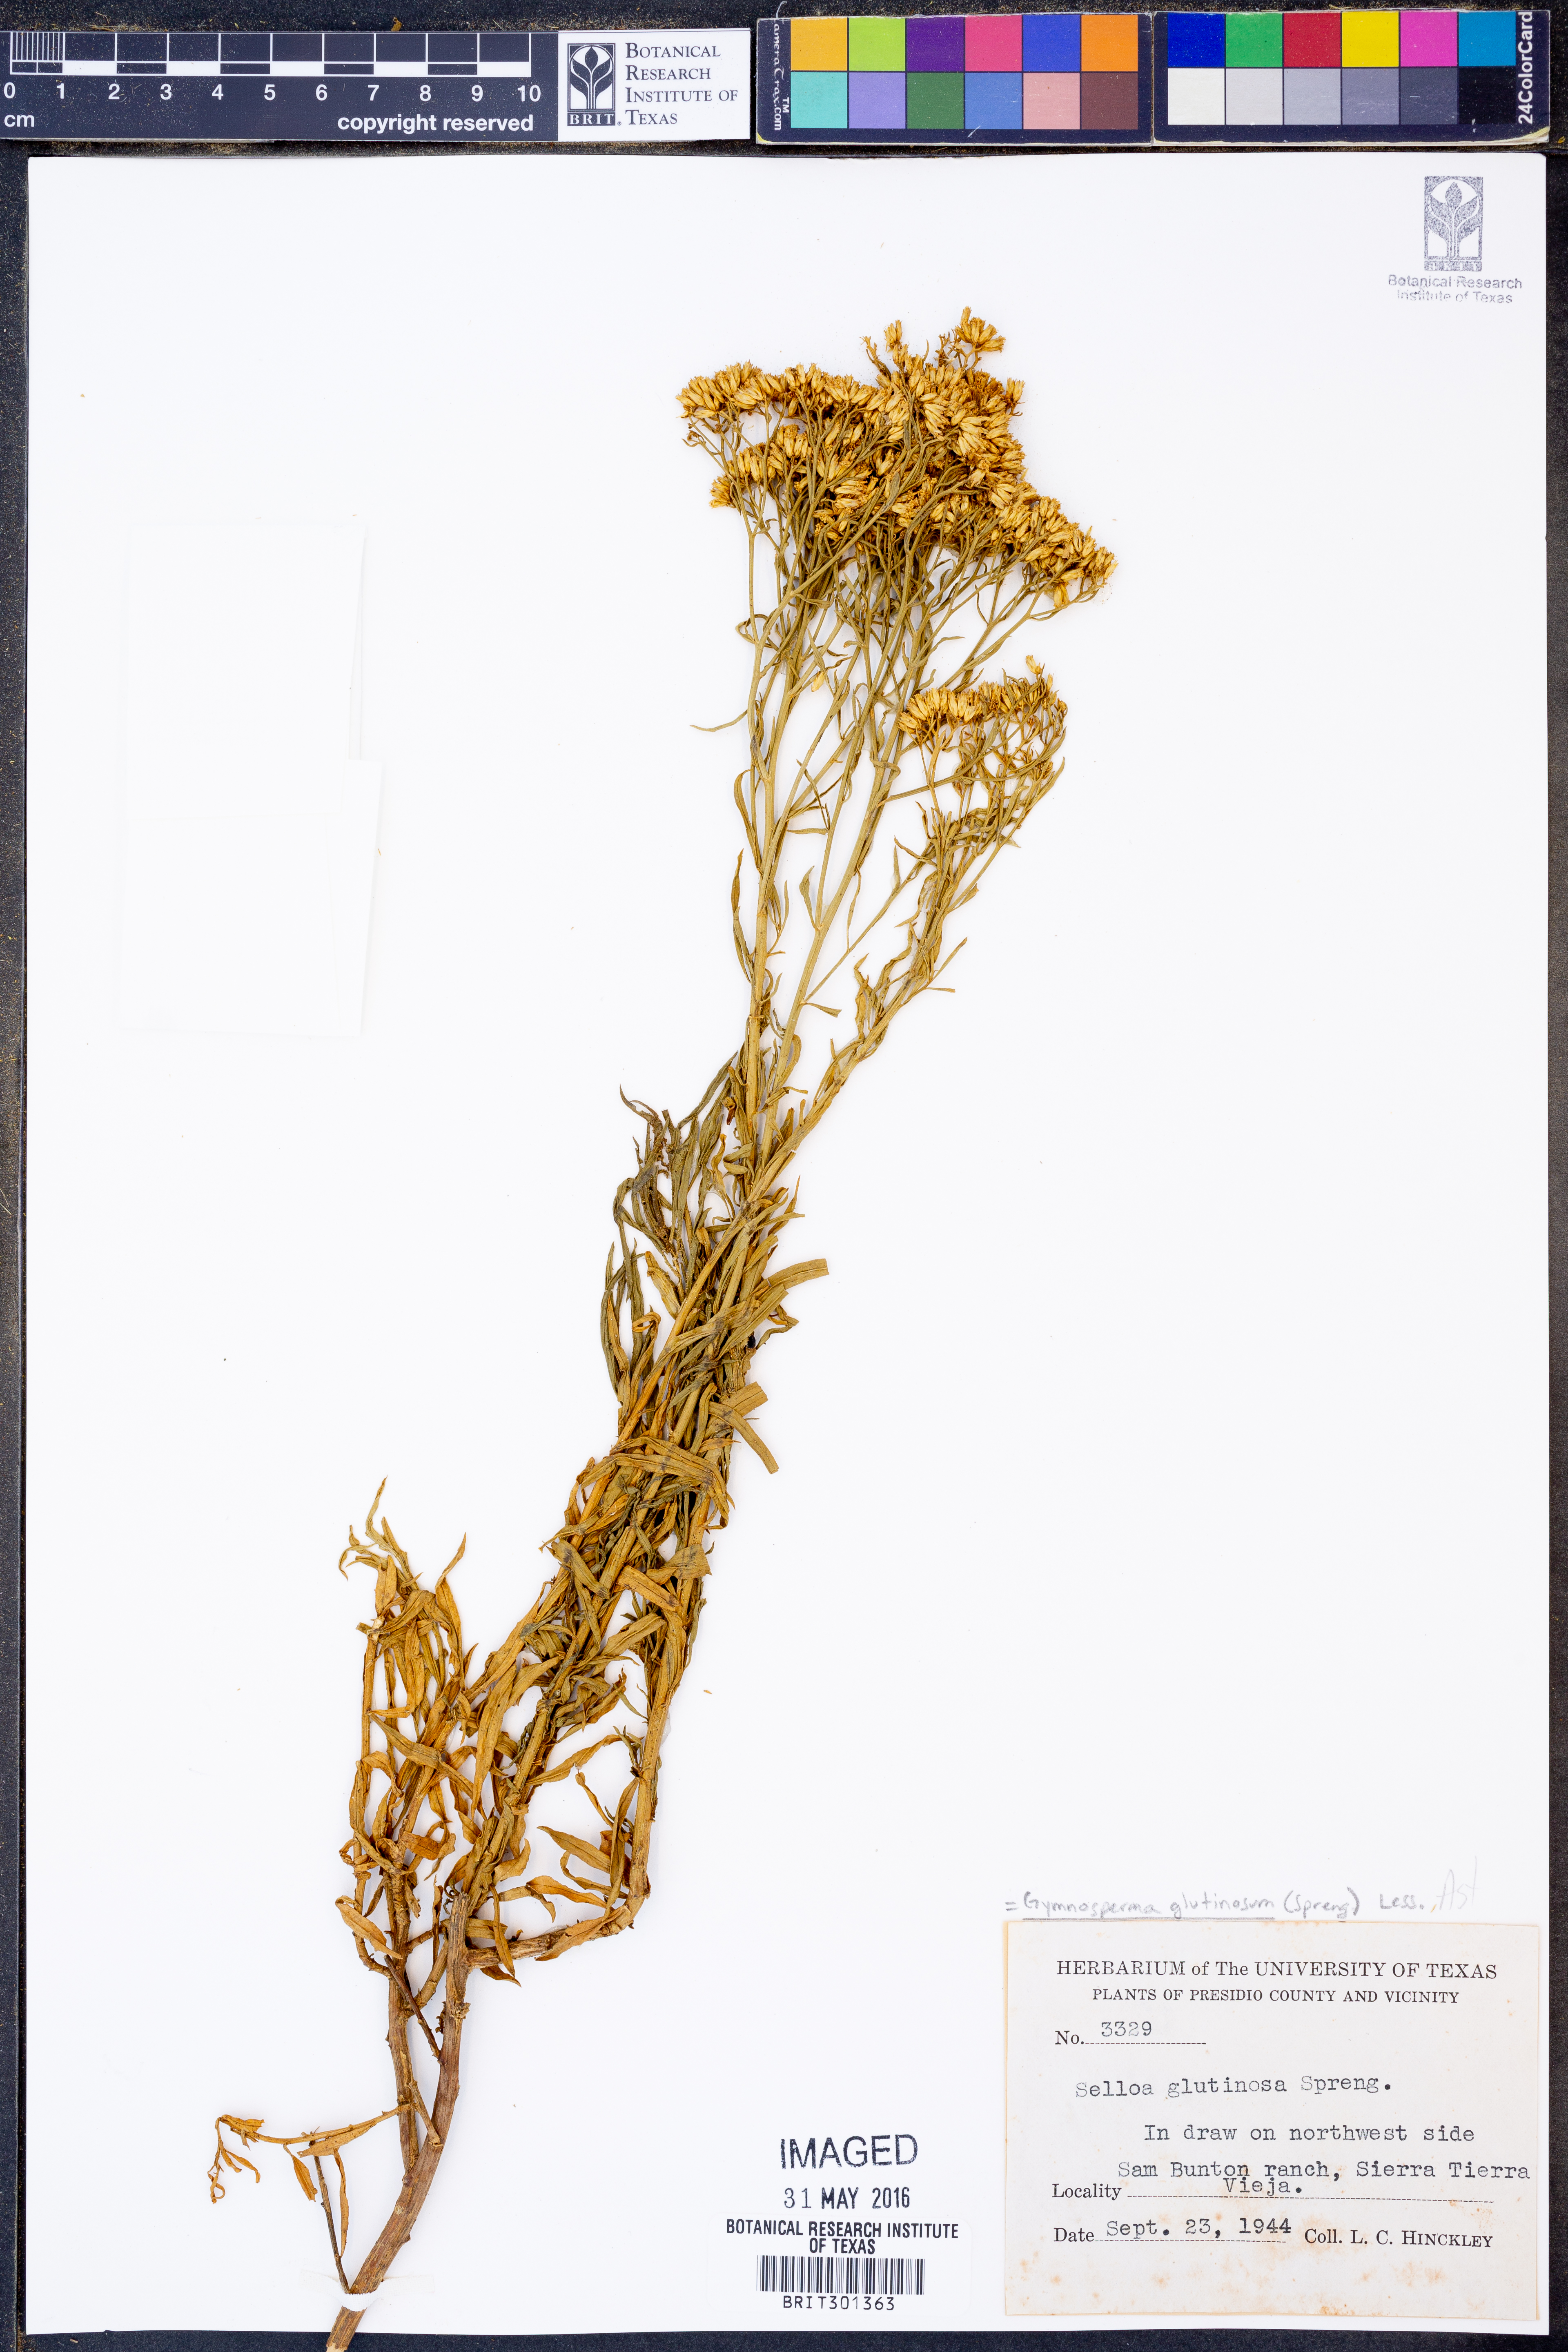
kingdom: Plantae
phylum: Tracheophyta
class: Magnoliopsida
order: Asterales
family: Asteraceae
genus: Gymnosperma
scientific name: Gymnosperma glutinosum
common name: Gumhead
